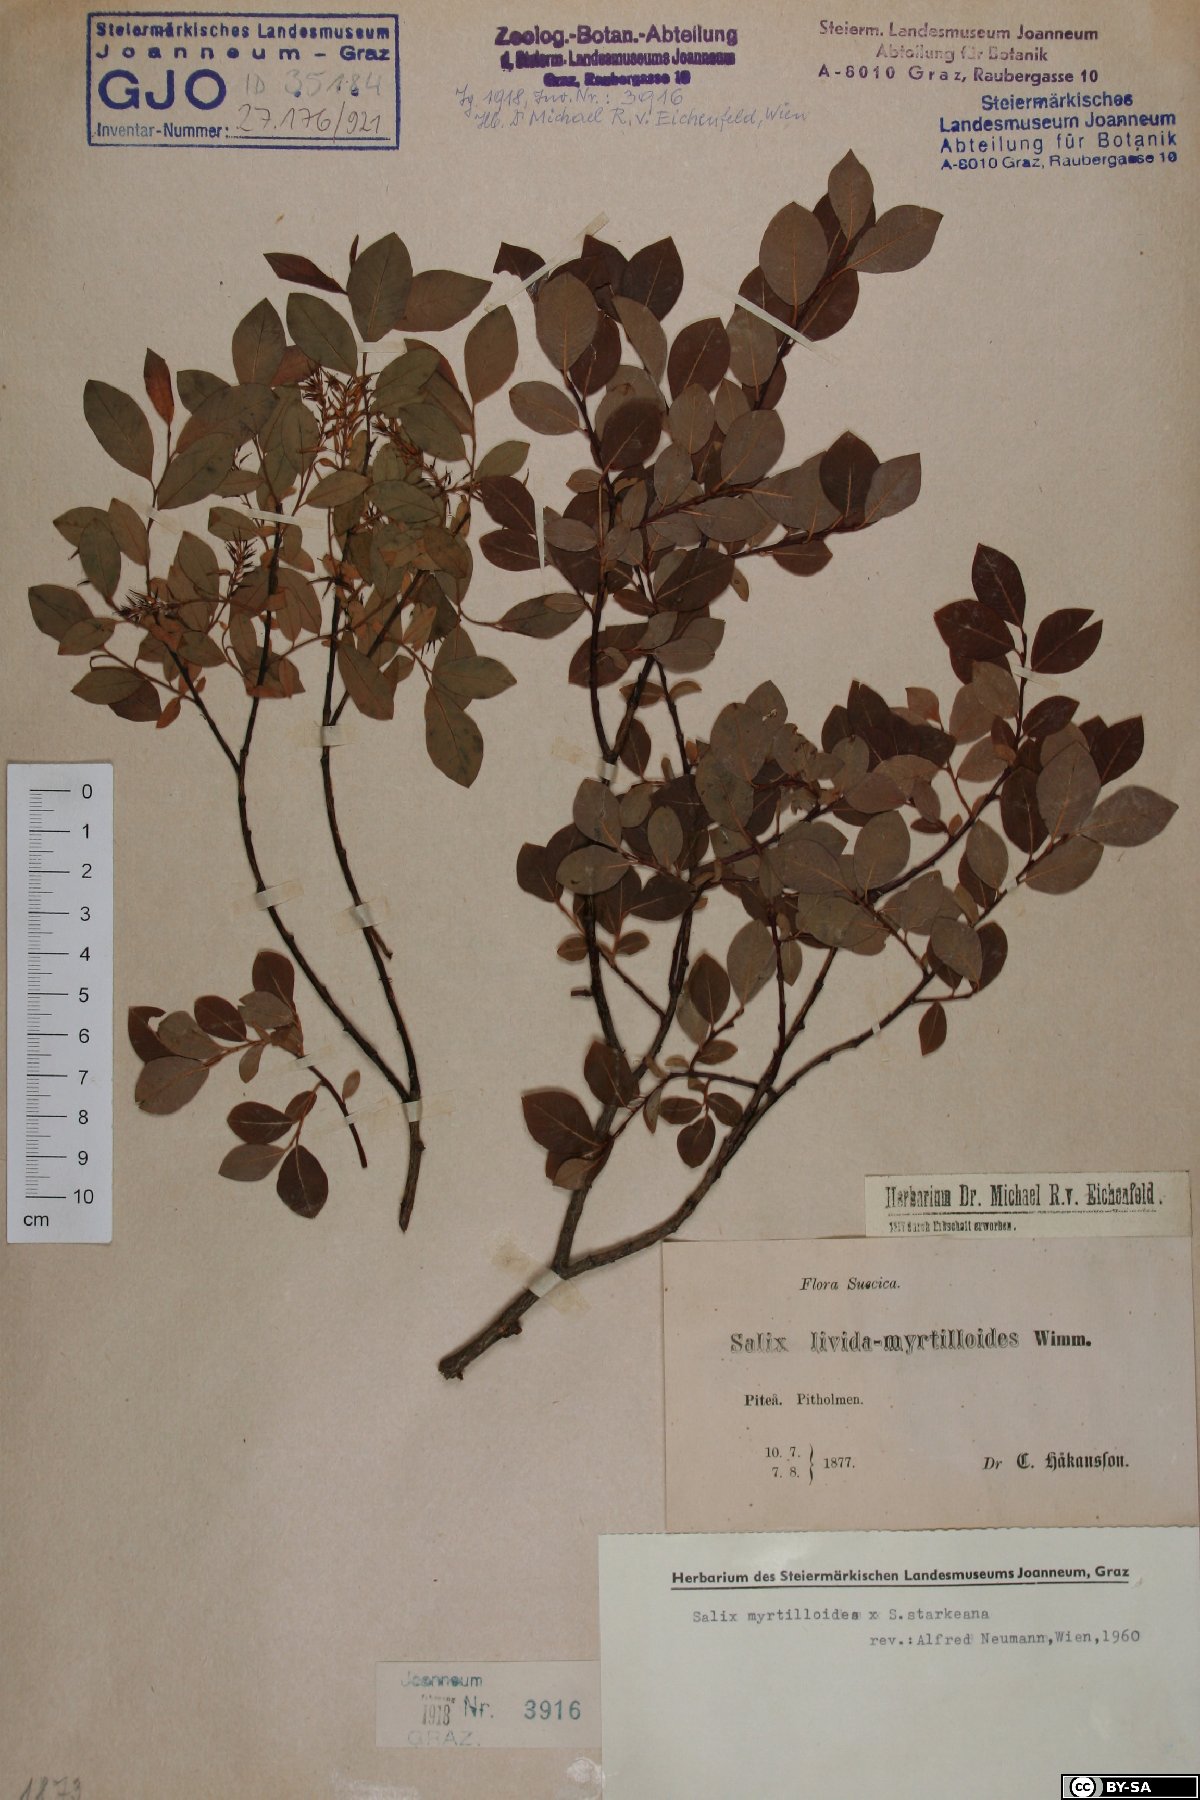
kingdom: Plantae
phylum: Tracheophyta
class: Magnoliopsida
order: Malpighiales
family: Salicaceae
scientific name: Salicaceae
